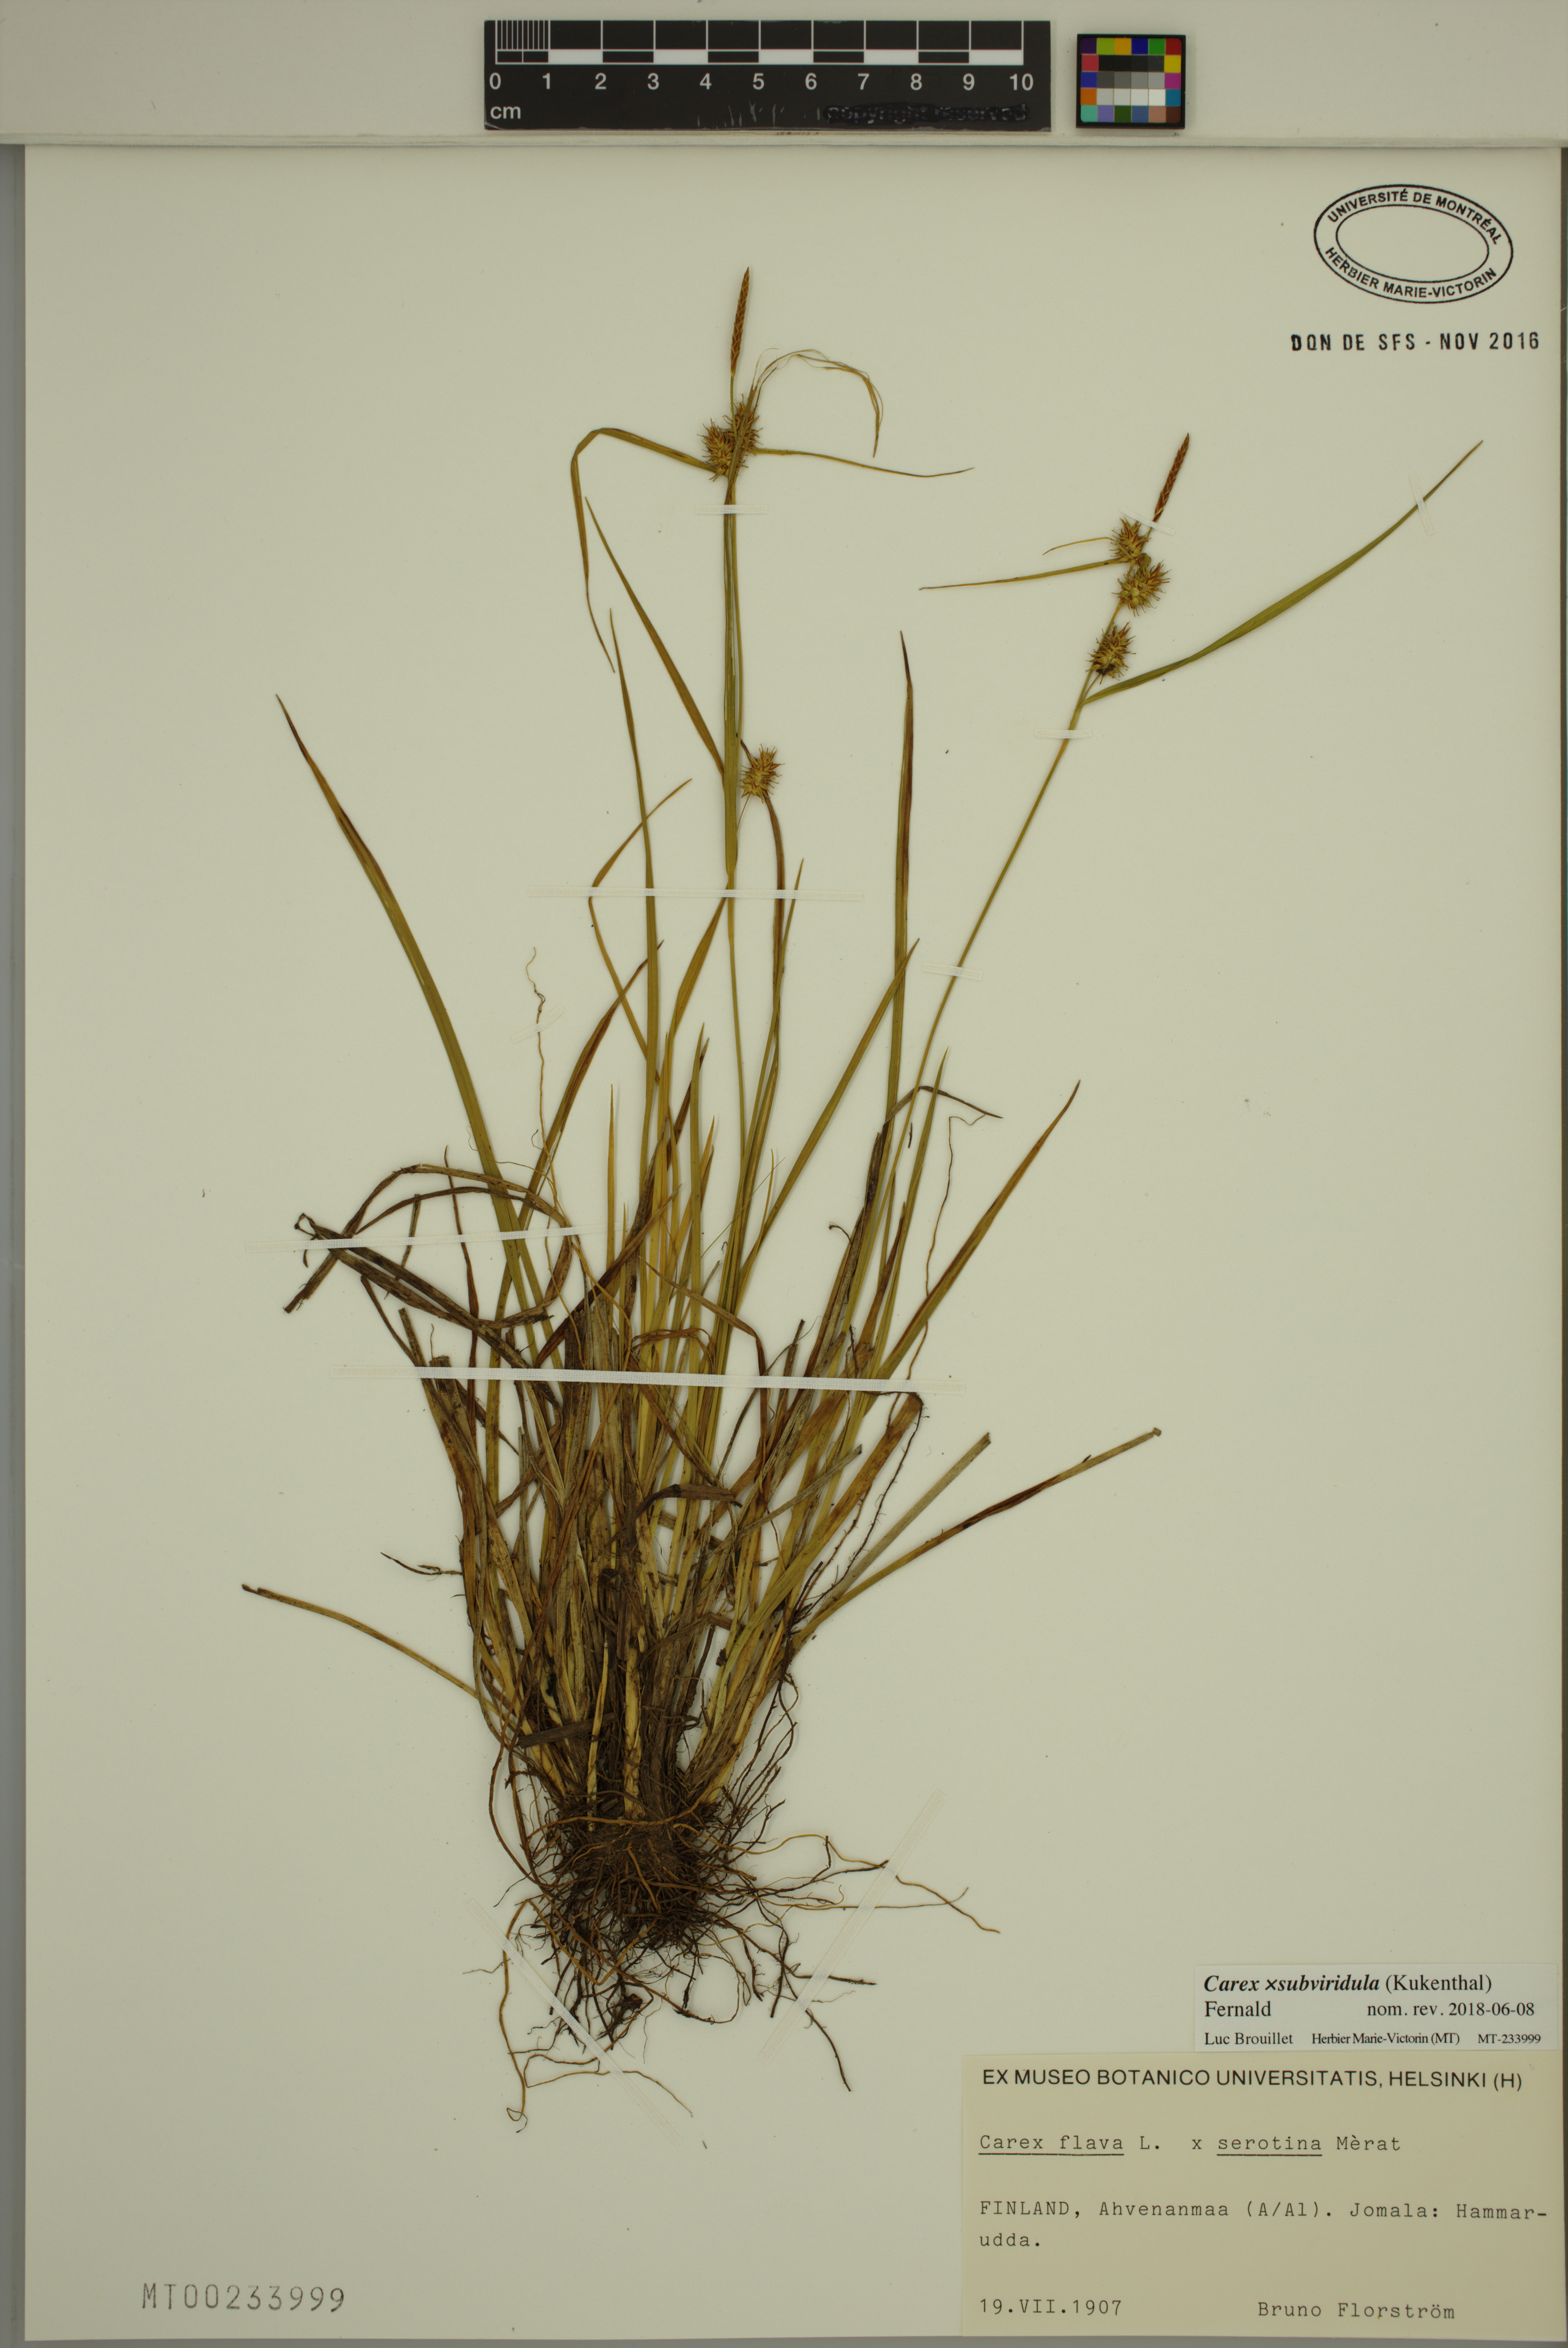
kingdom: Plantae
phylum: Tracheophyta
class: Liliopsida
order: Poales
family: Cyperaceae
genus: Carex
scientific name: Carex subviridula
